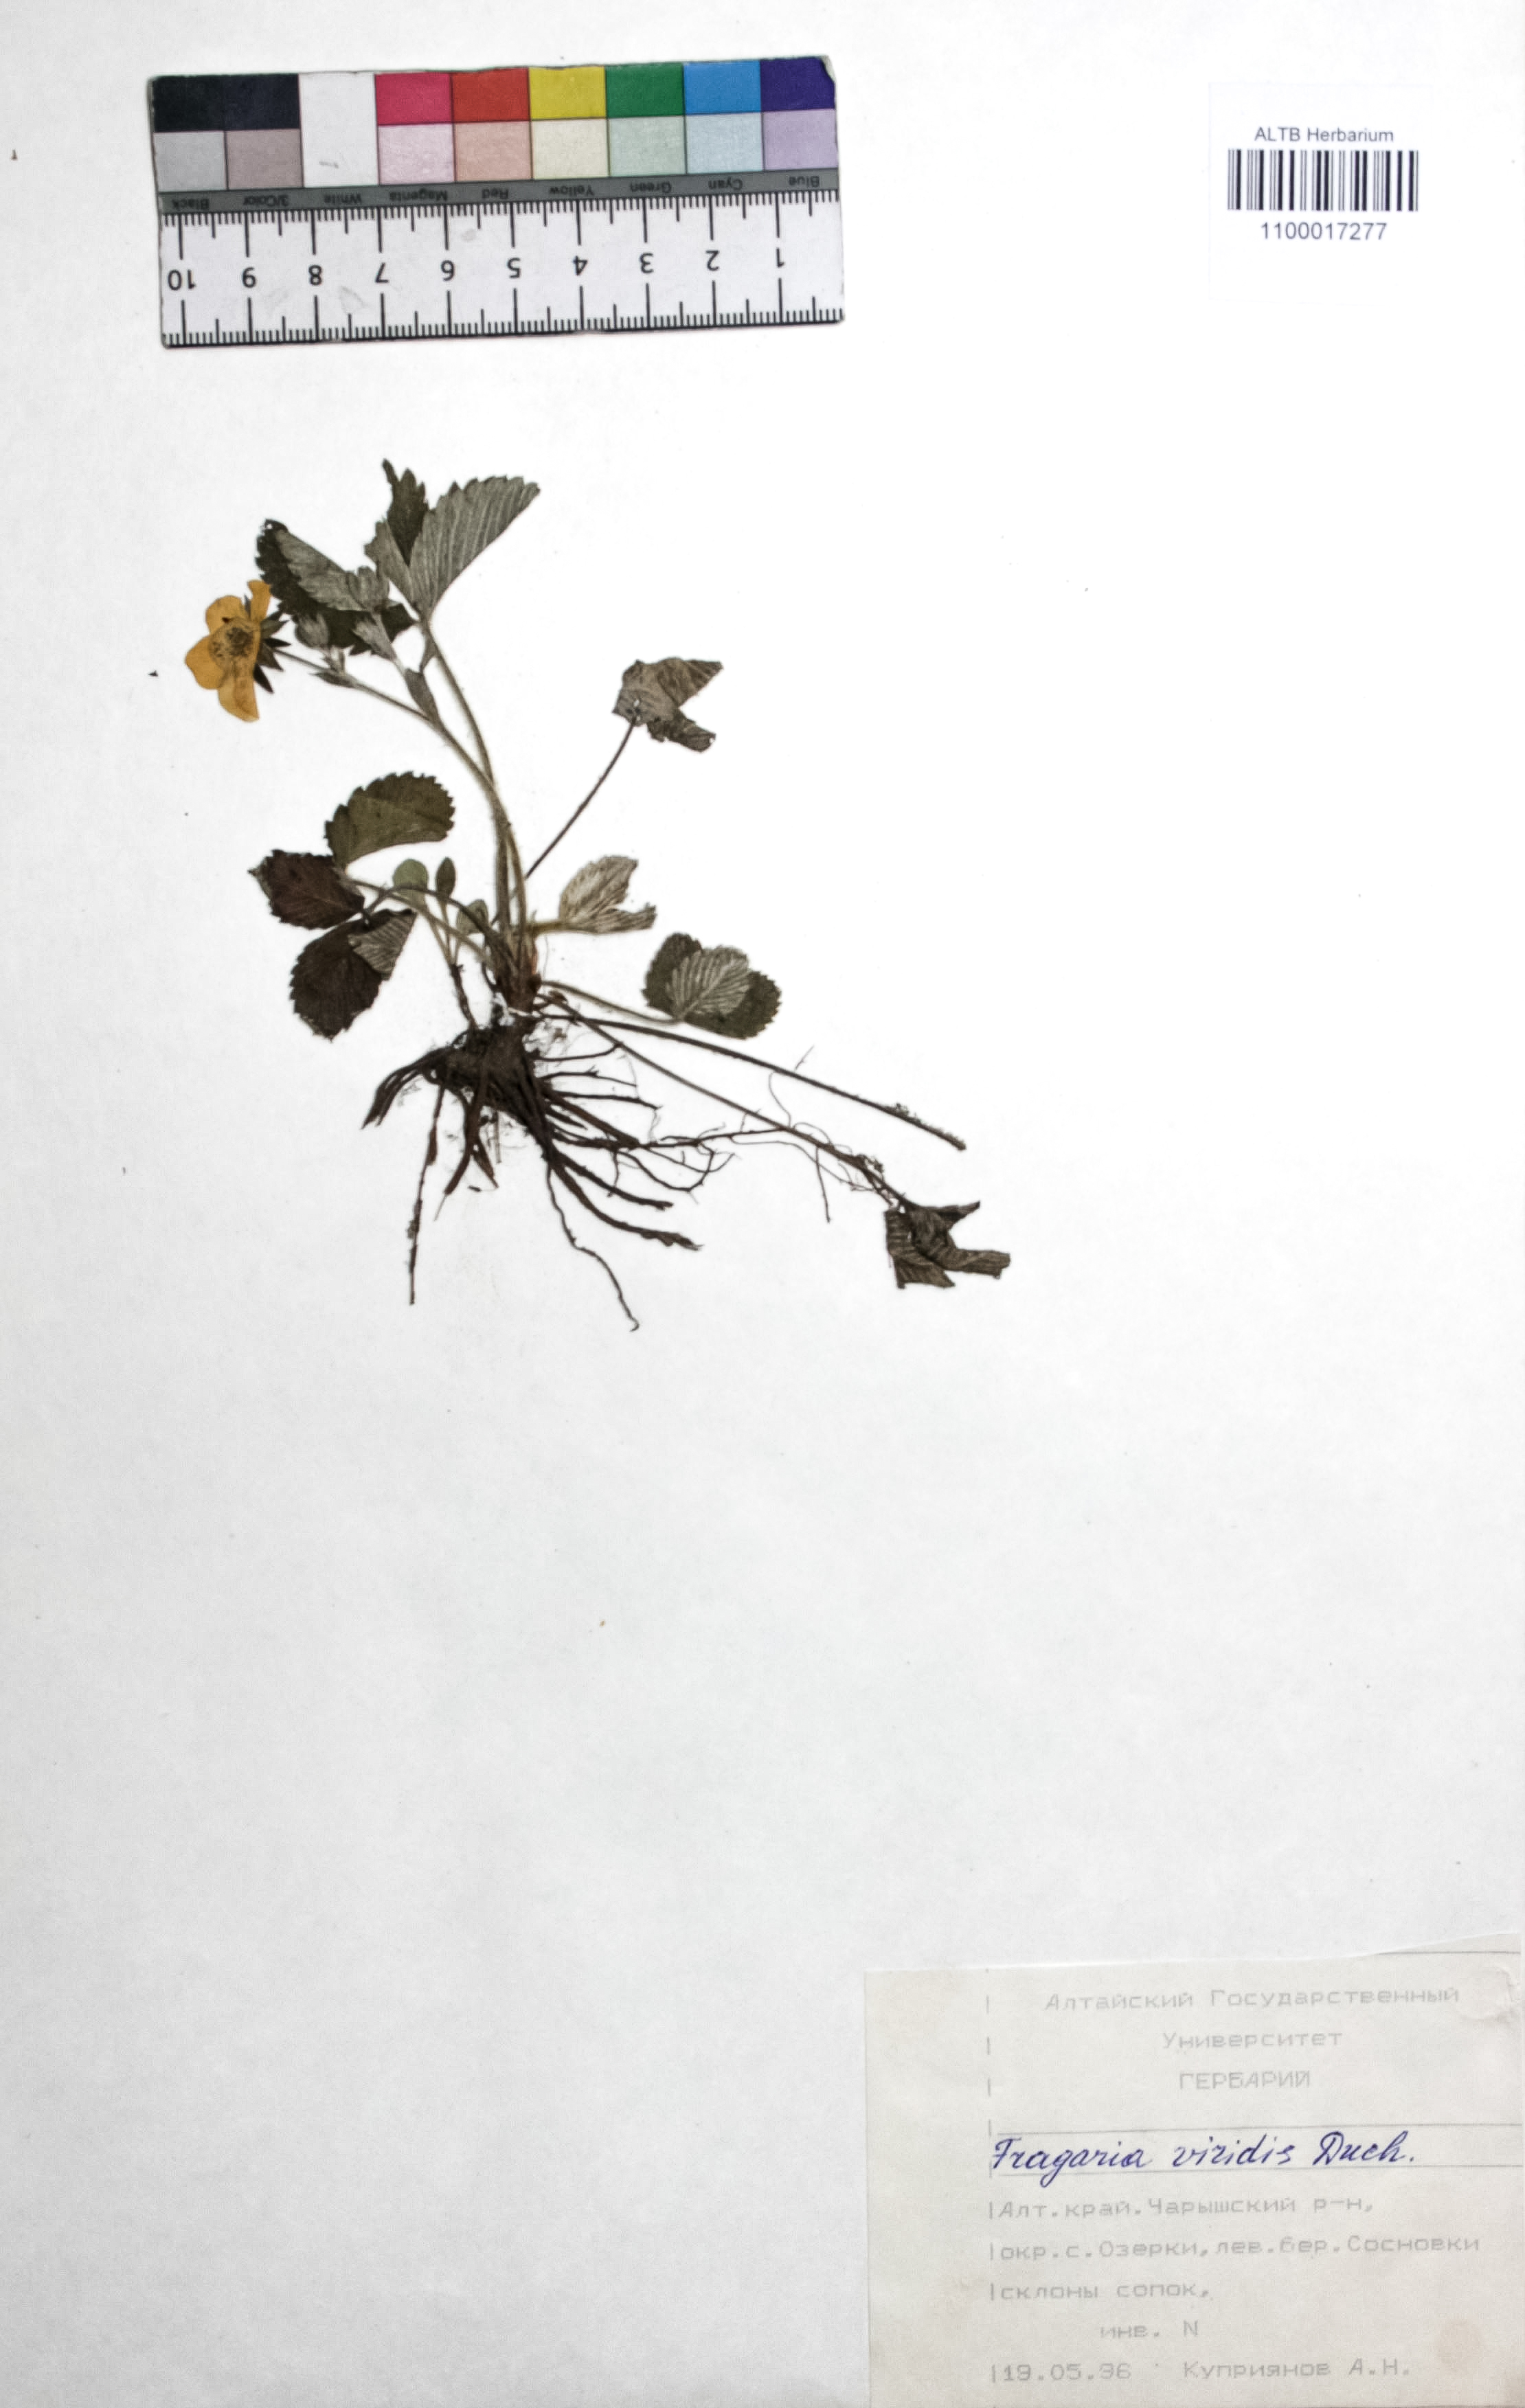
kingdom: Plantae
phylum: Tracheophyta
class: Magnoliopsida
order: Rosales
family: Rosaceae
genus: Fragaria
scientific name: Fragaria viridis
